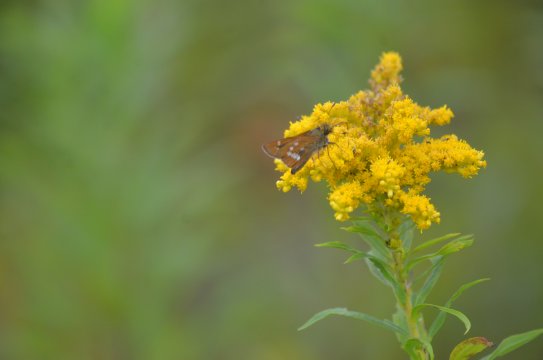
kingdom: Animalia
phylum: Arthropoda
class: Insecta
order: Lepidoptera
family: Hesperiidae
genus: Hesperia
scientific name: Hesperia leonardus
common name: Leonard's Skipper
